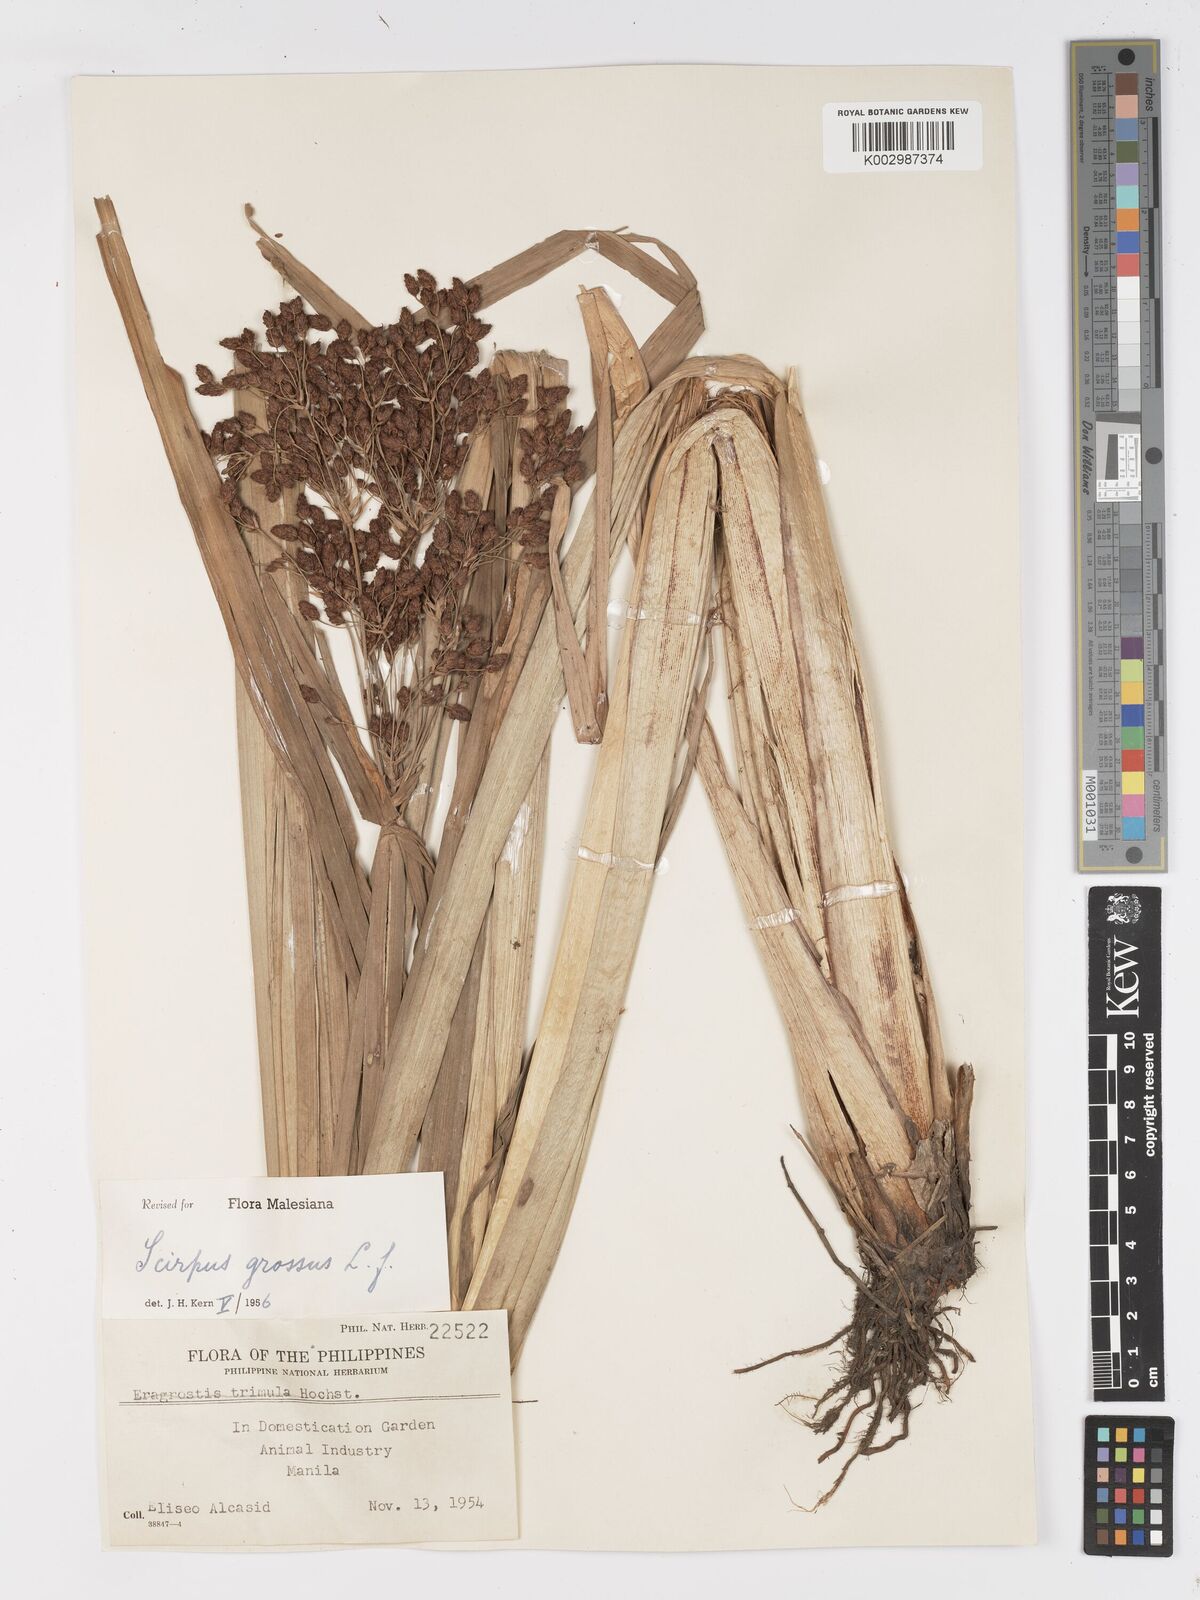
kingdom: Plantae
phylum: Tracheophyta
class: Liliopsida
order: Poales
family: Cyperaceae
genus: Actinoscirpus
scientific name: Actinoscirpus grossus
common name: Giant bur rush
